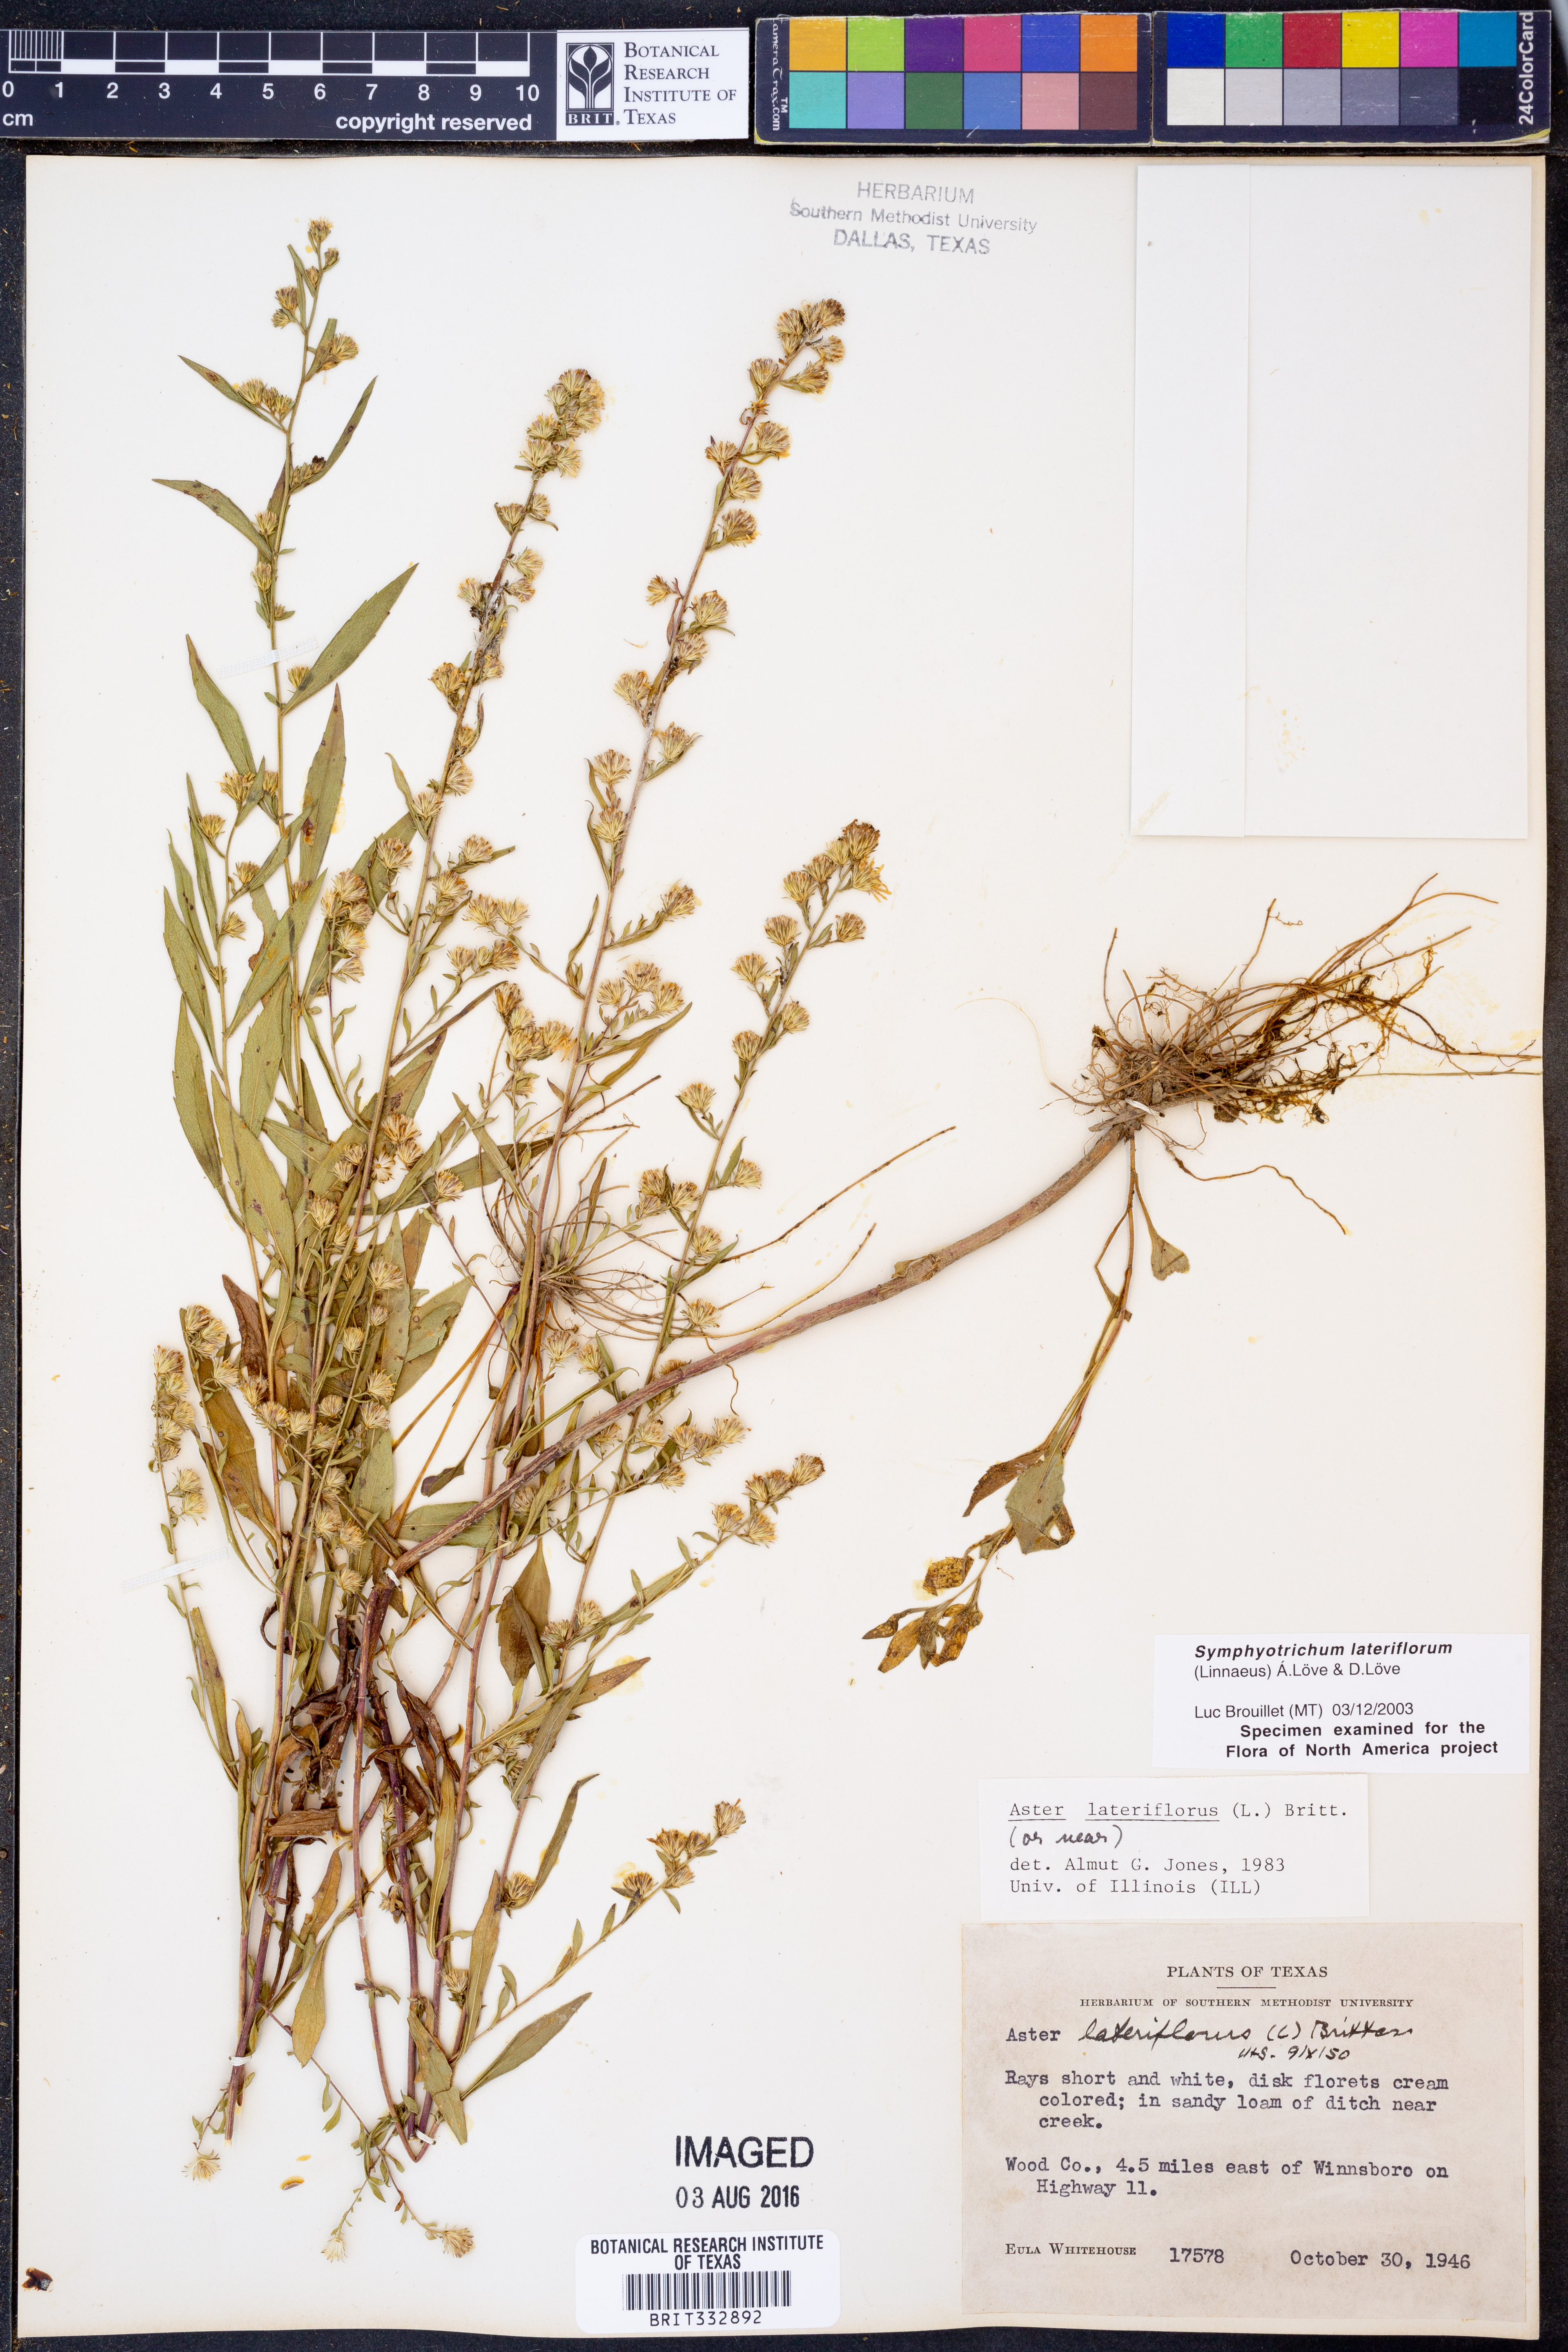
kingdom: Plantae
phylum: Tracheophyta
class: Magnoliopsida
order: Asterales
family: Asteraceae
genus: Symphyotrichum
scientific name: Symphyotrichum lateriflorum
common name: Calico aster
